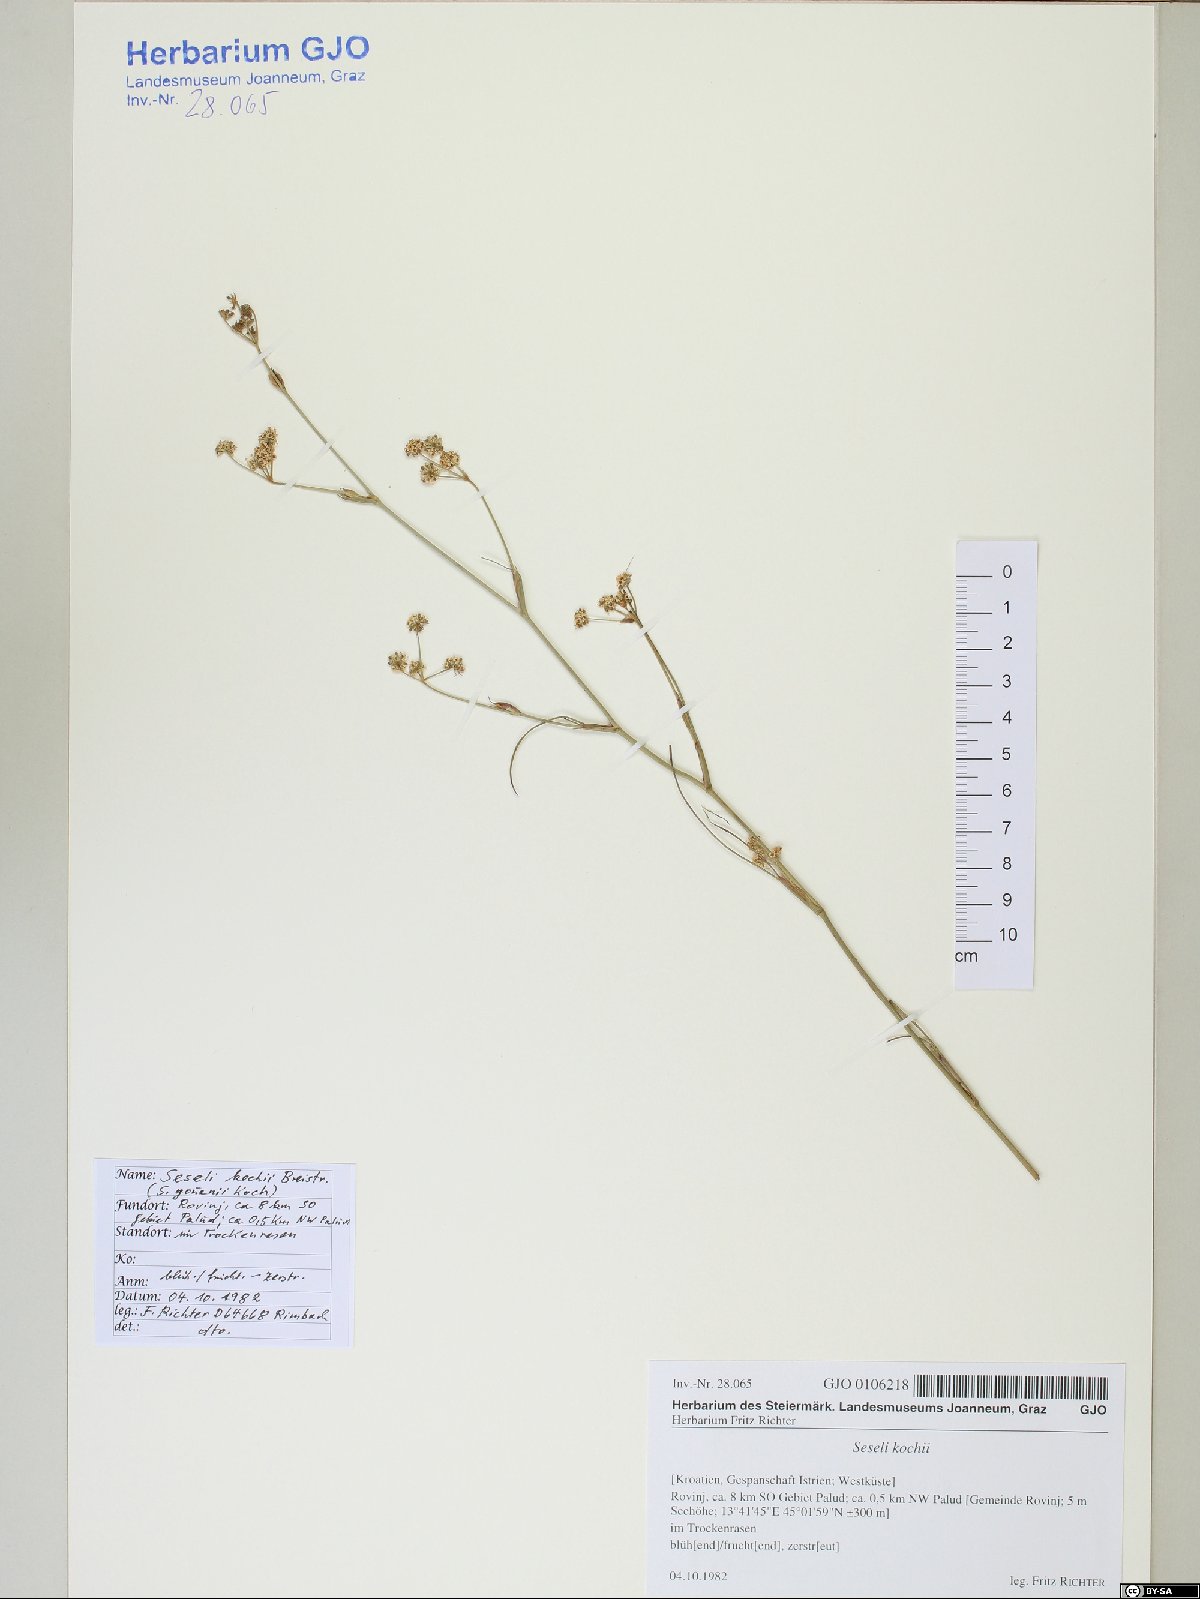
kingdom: Plantae
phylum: Tracheophyta
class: Magnoliopsida
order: Apiales
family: Apiaceae
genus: Seseli
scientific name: Seseli gouanii
